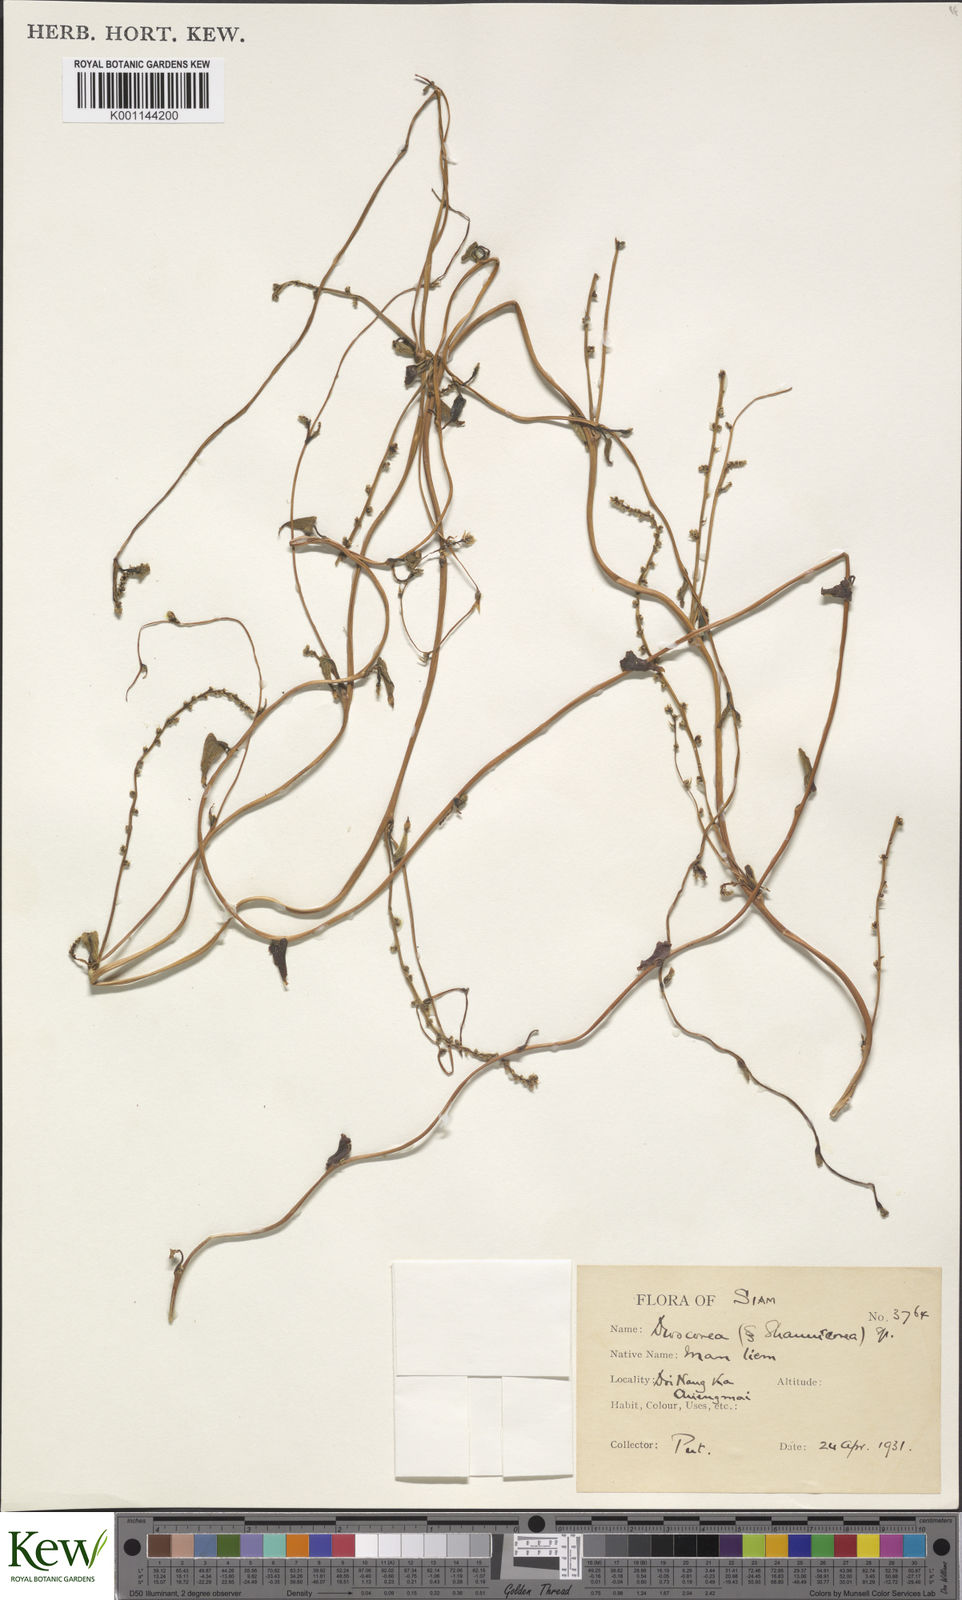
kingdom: Plantae
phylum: Tracheophyta
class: Liliopsida
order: Dioscoreales
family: Dioscoreaceae
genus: Dioscorea
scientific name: Dioscorea
